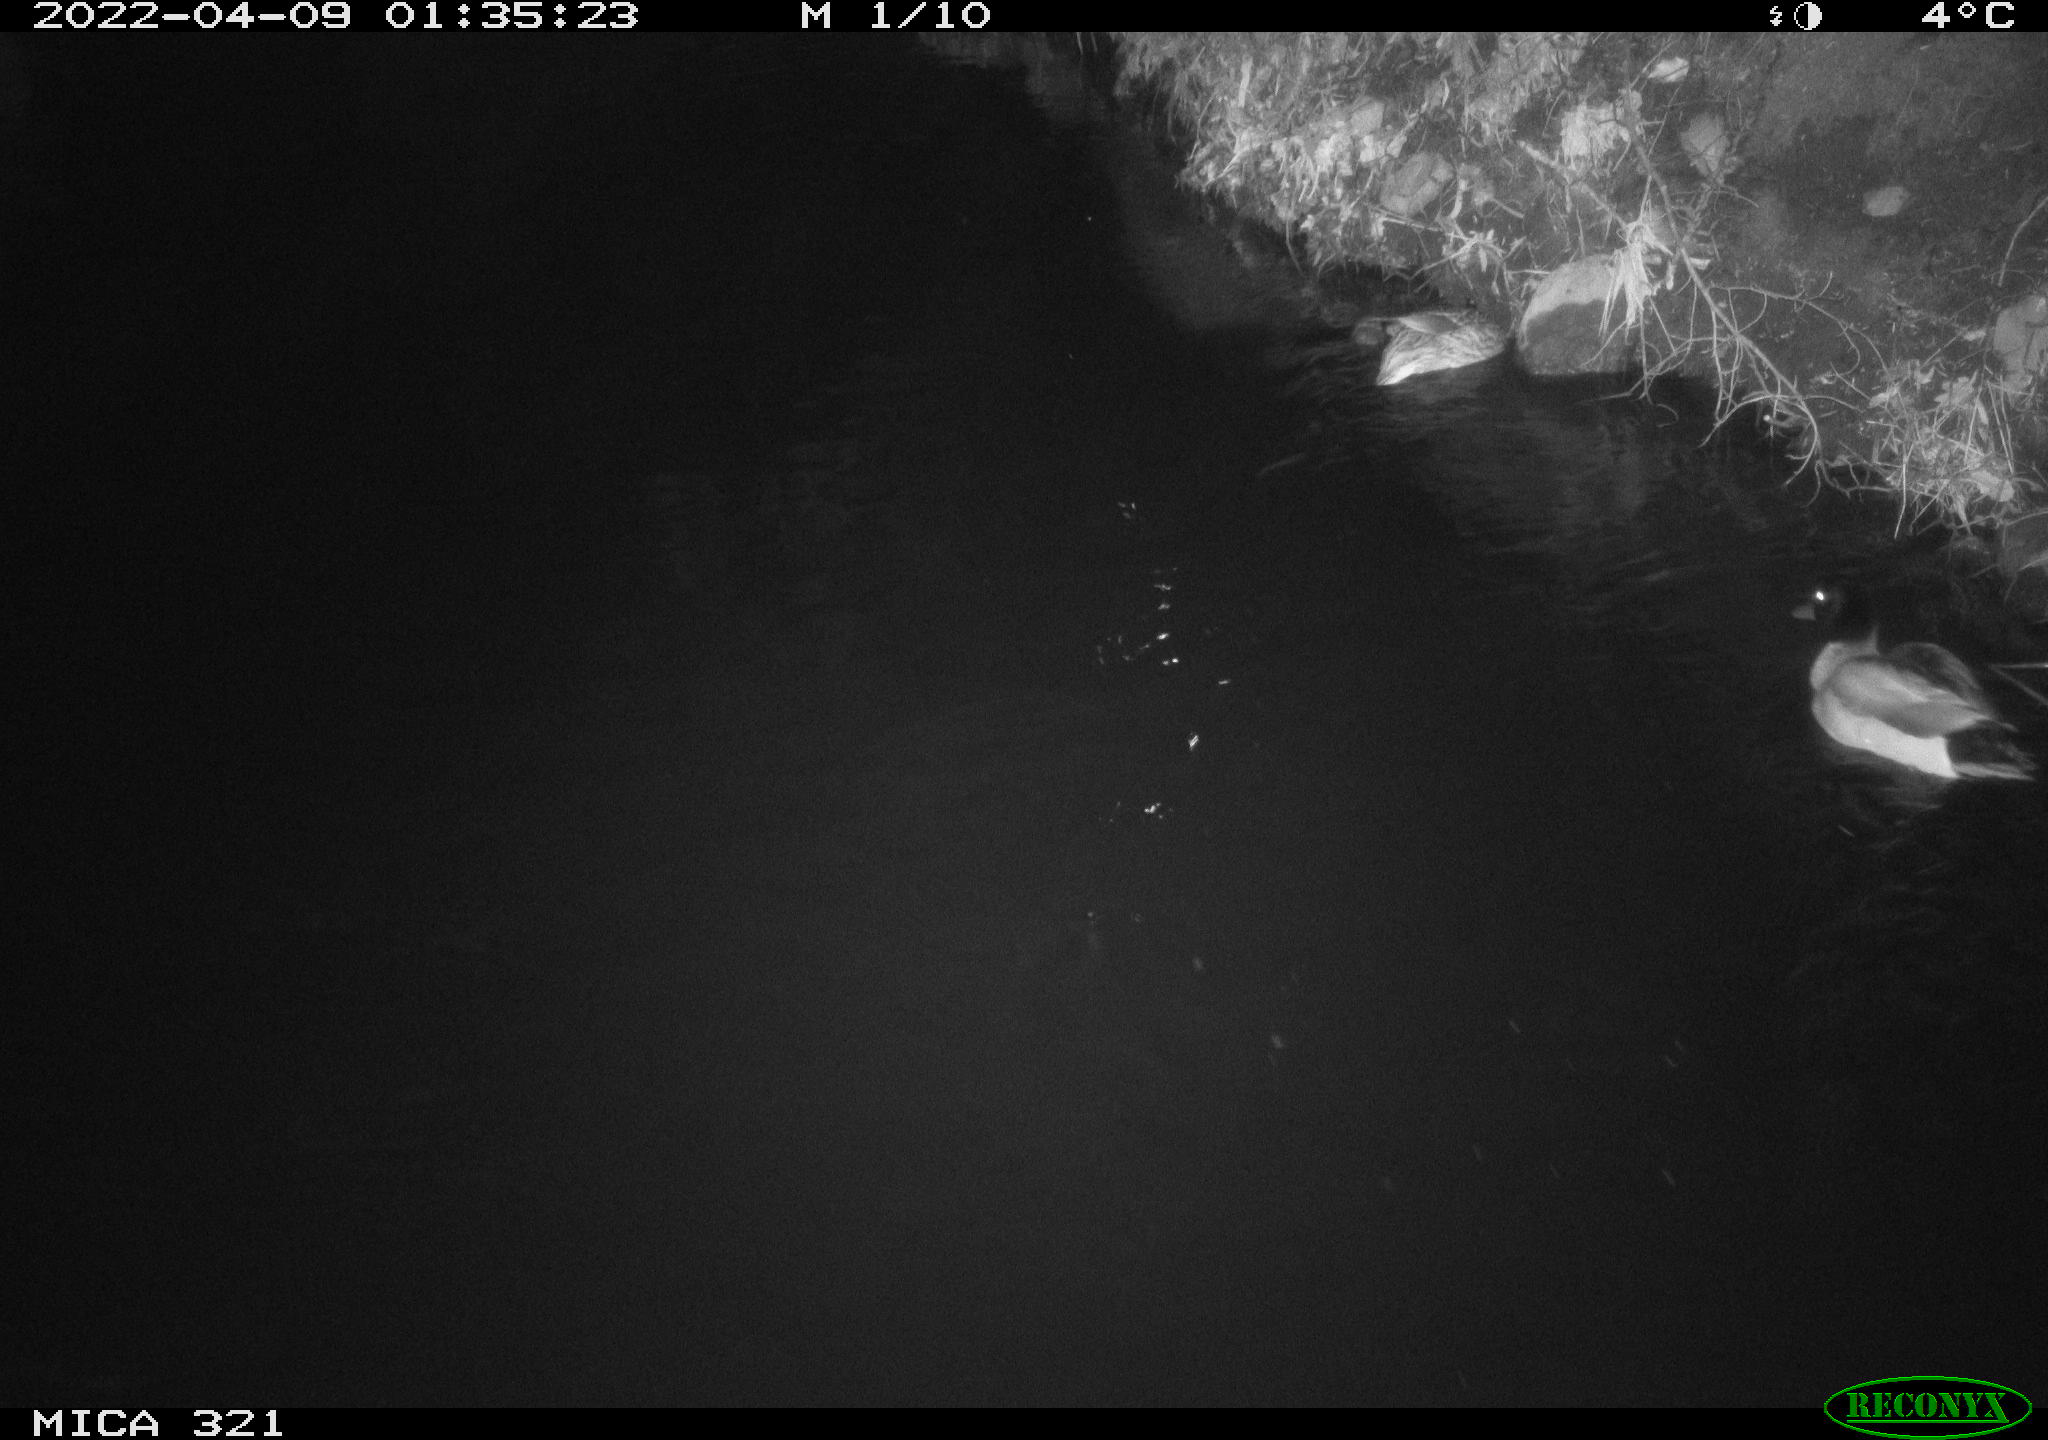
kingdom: Animalia
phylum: Chordata
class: Aves
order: Anseriformes
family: Anatidae
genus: Anas
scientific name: Anas platyrhynchos
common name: Mallard
